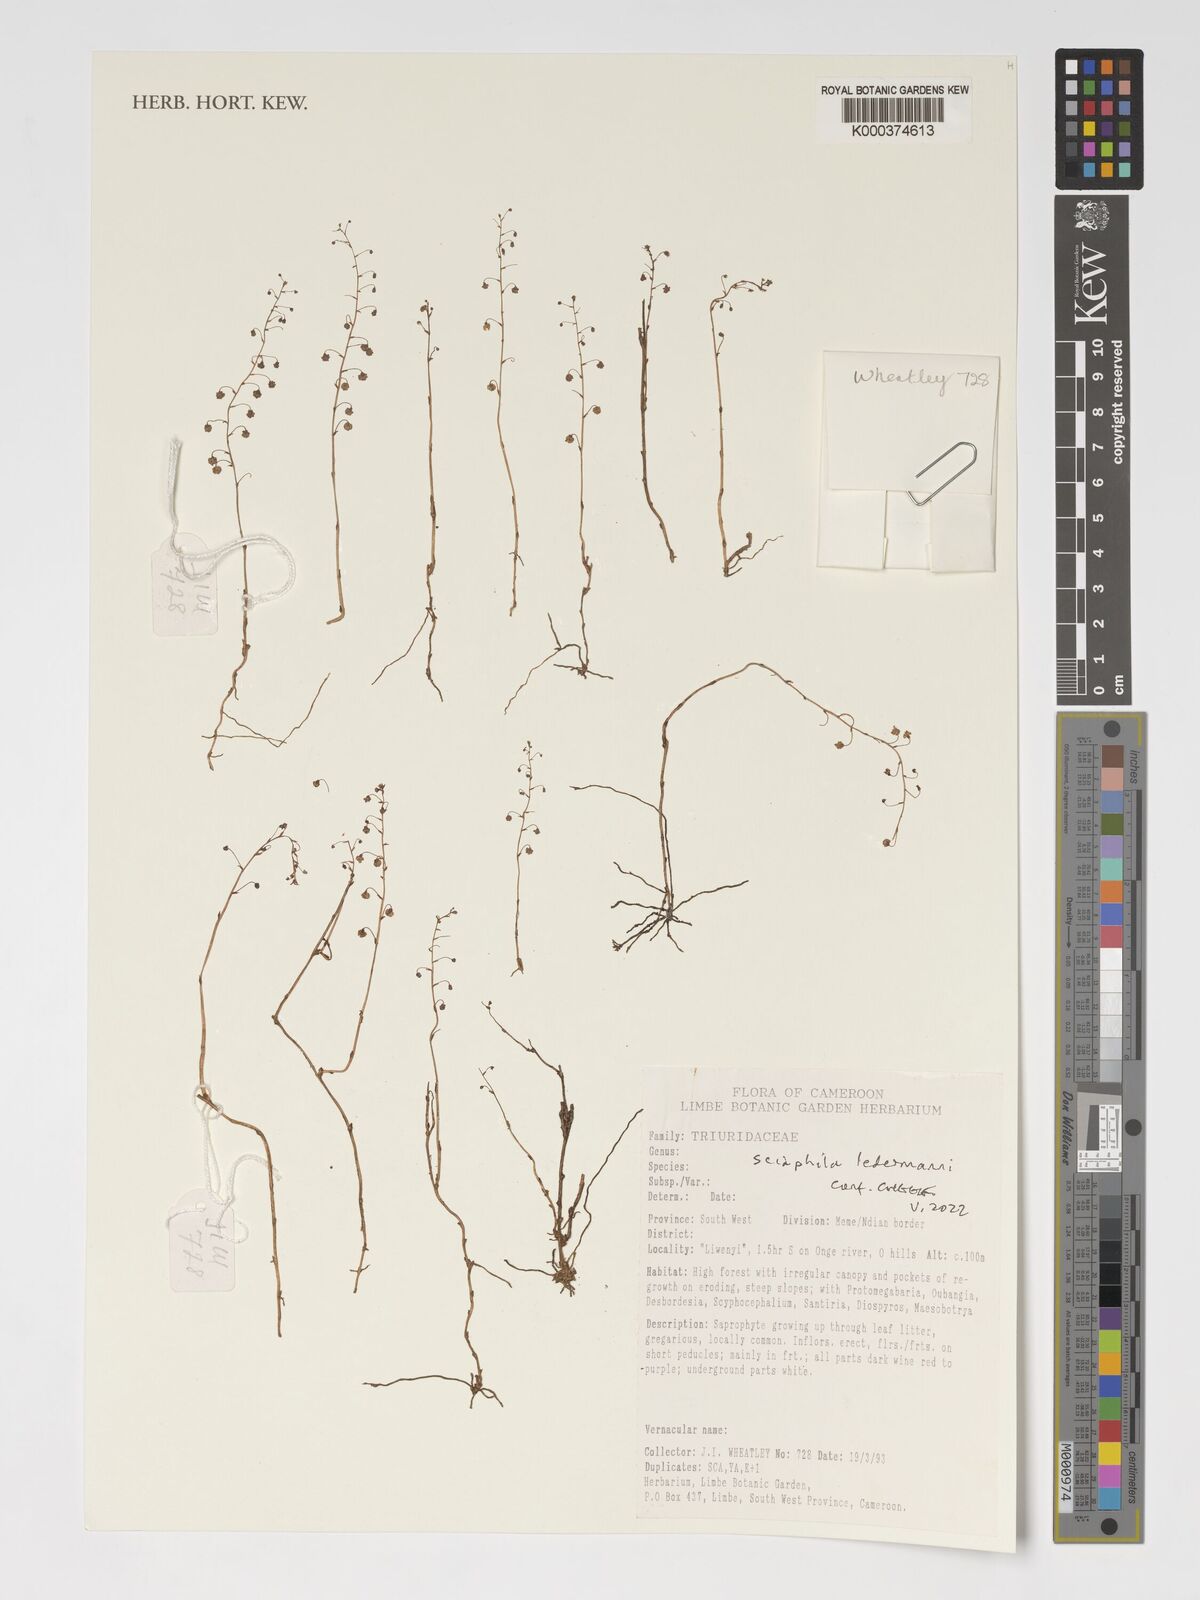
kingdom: Plantae
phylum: Tracheophyta
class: Liliopsida
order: Pandanales
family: Triuridaceae
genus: Sciaphila
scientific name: Sciaphila ledermannii
